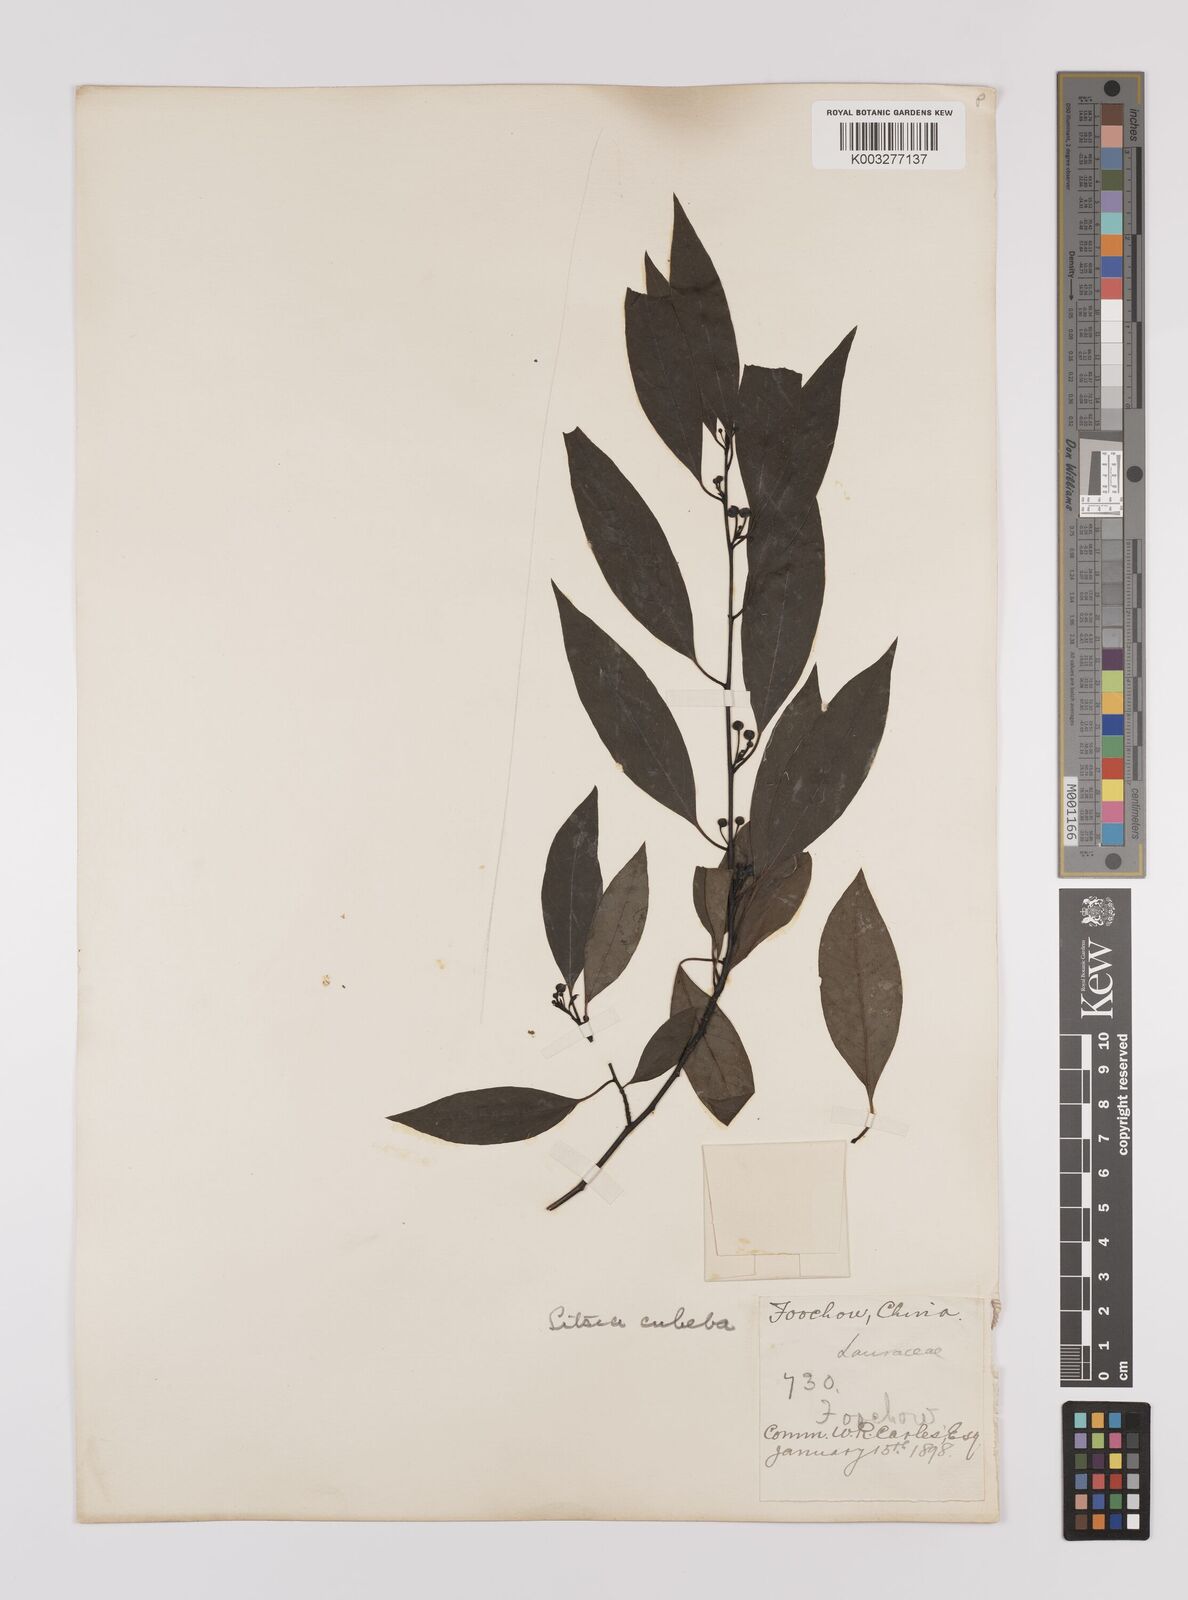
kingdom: Plantae
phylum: Tracheophyta
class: Magnoliopsida
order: Laurales
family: Lauraceae
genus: Litsea
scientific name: Litsea cubeba
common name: Mountain-pepper
